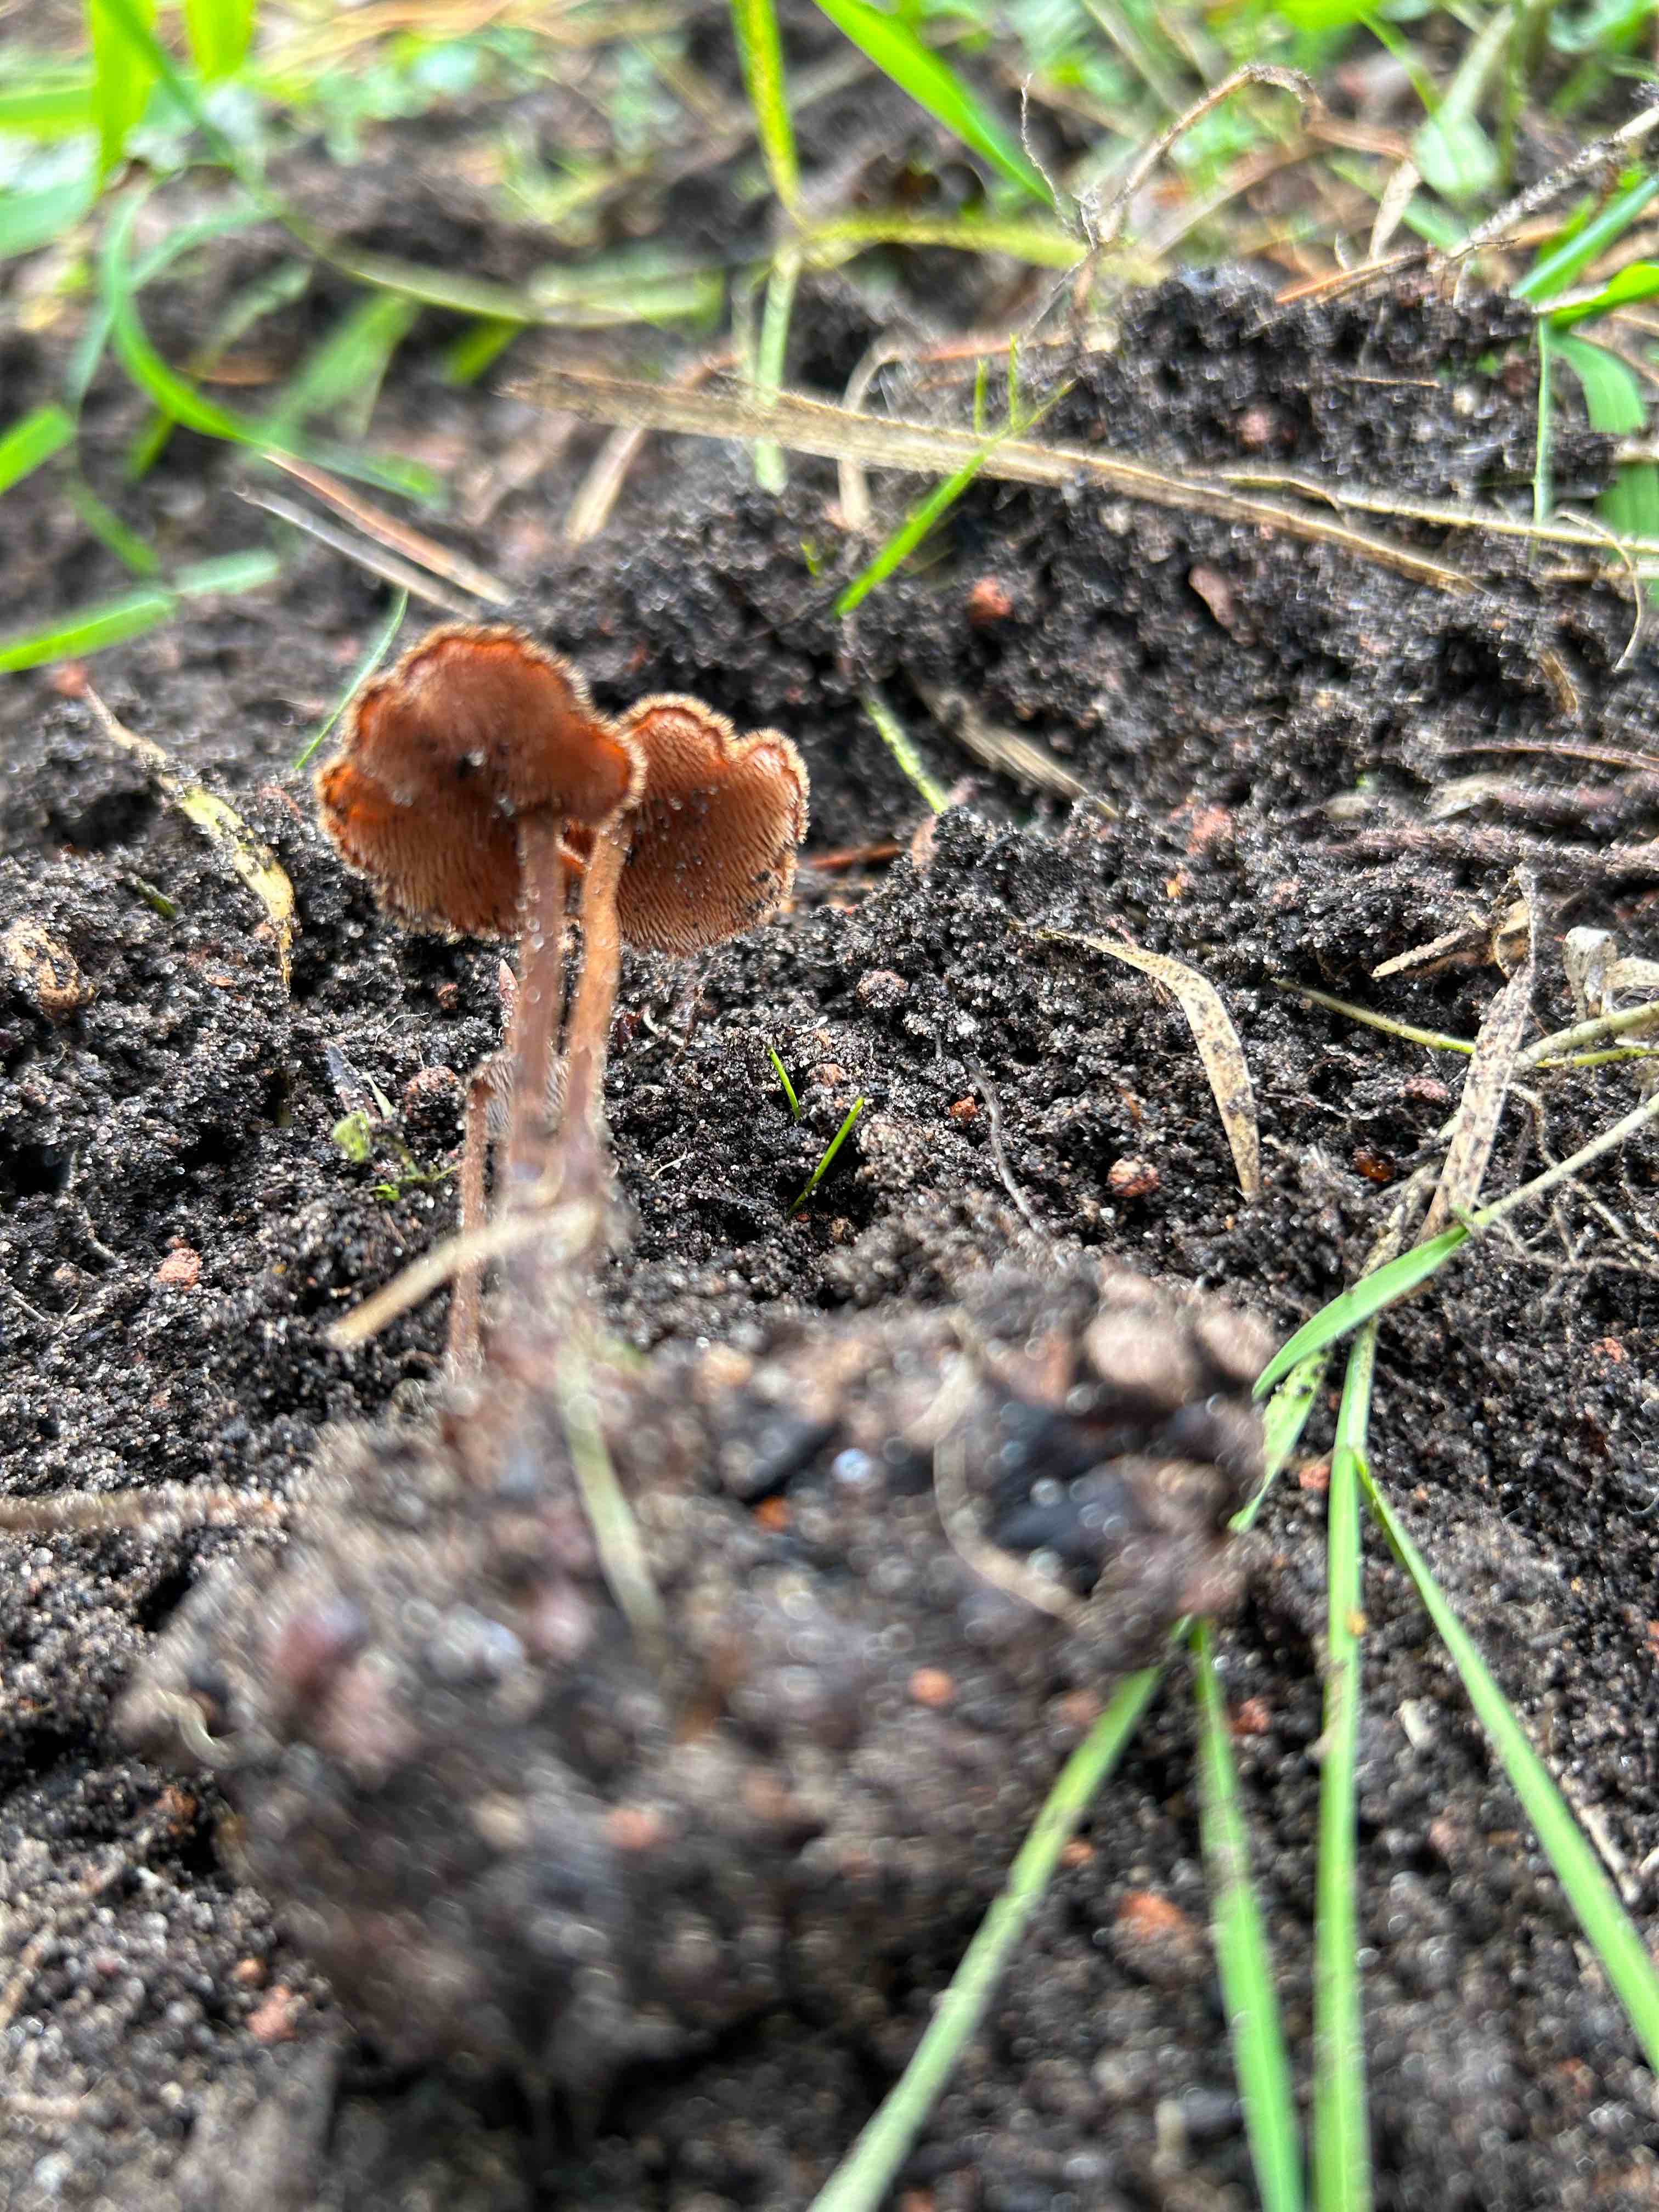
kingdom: Fungi
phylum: Basidiomycota
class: Agaricomycetes
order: Russulales
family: Auriscalpiaceae
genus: Auriscalpium
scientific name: Auriscalpium vulgare
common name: koglepigsvamp
